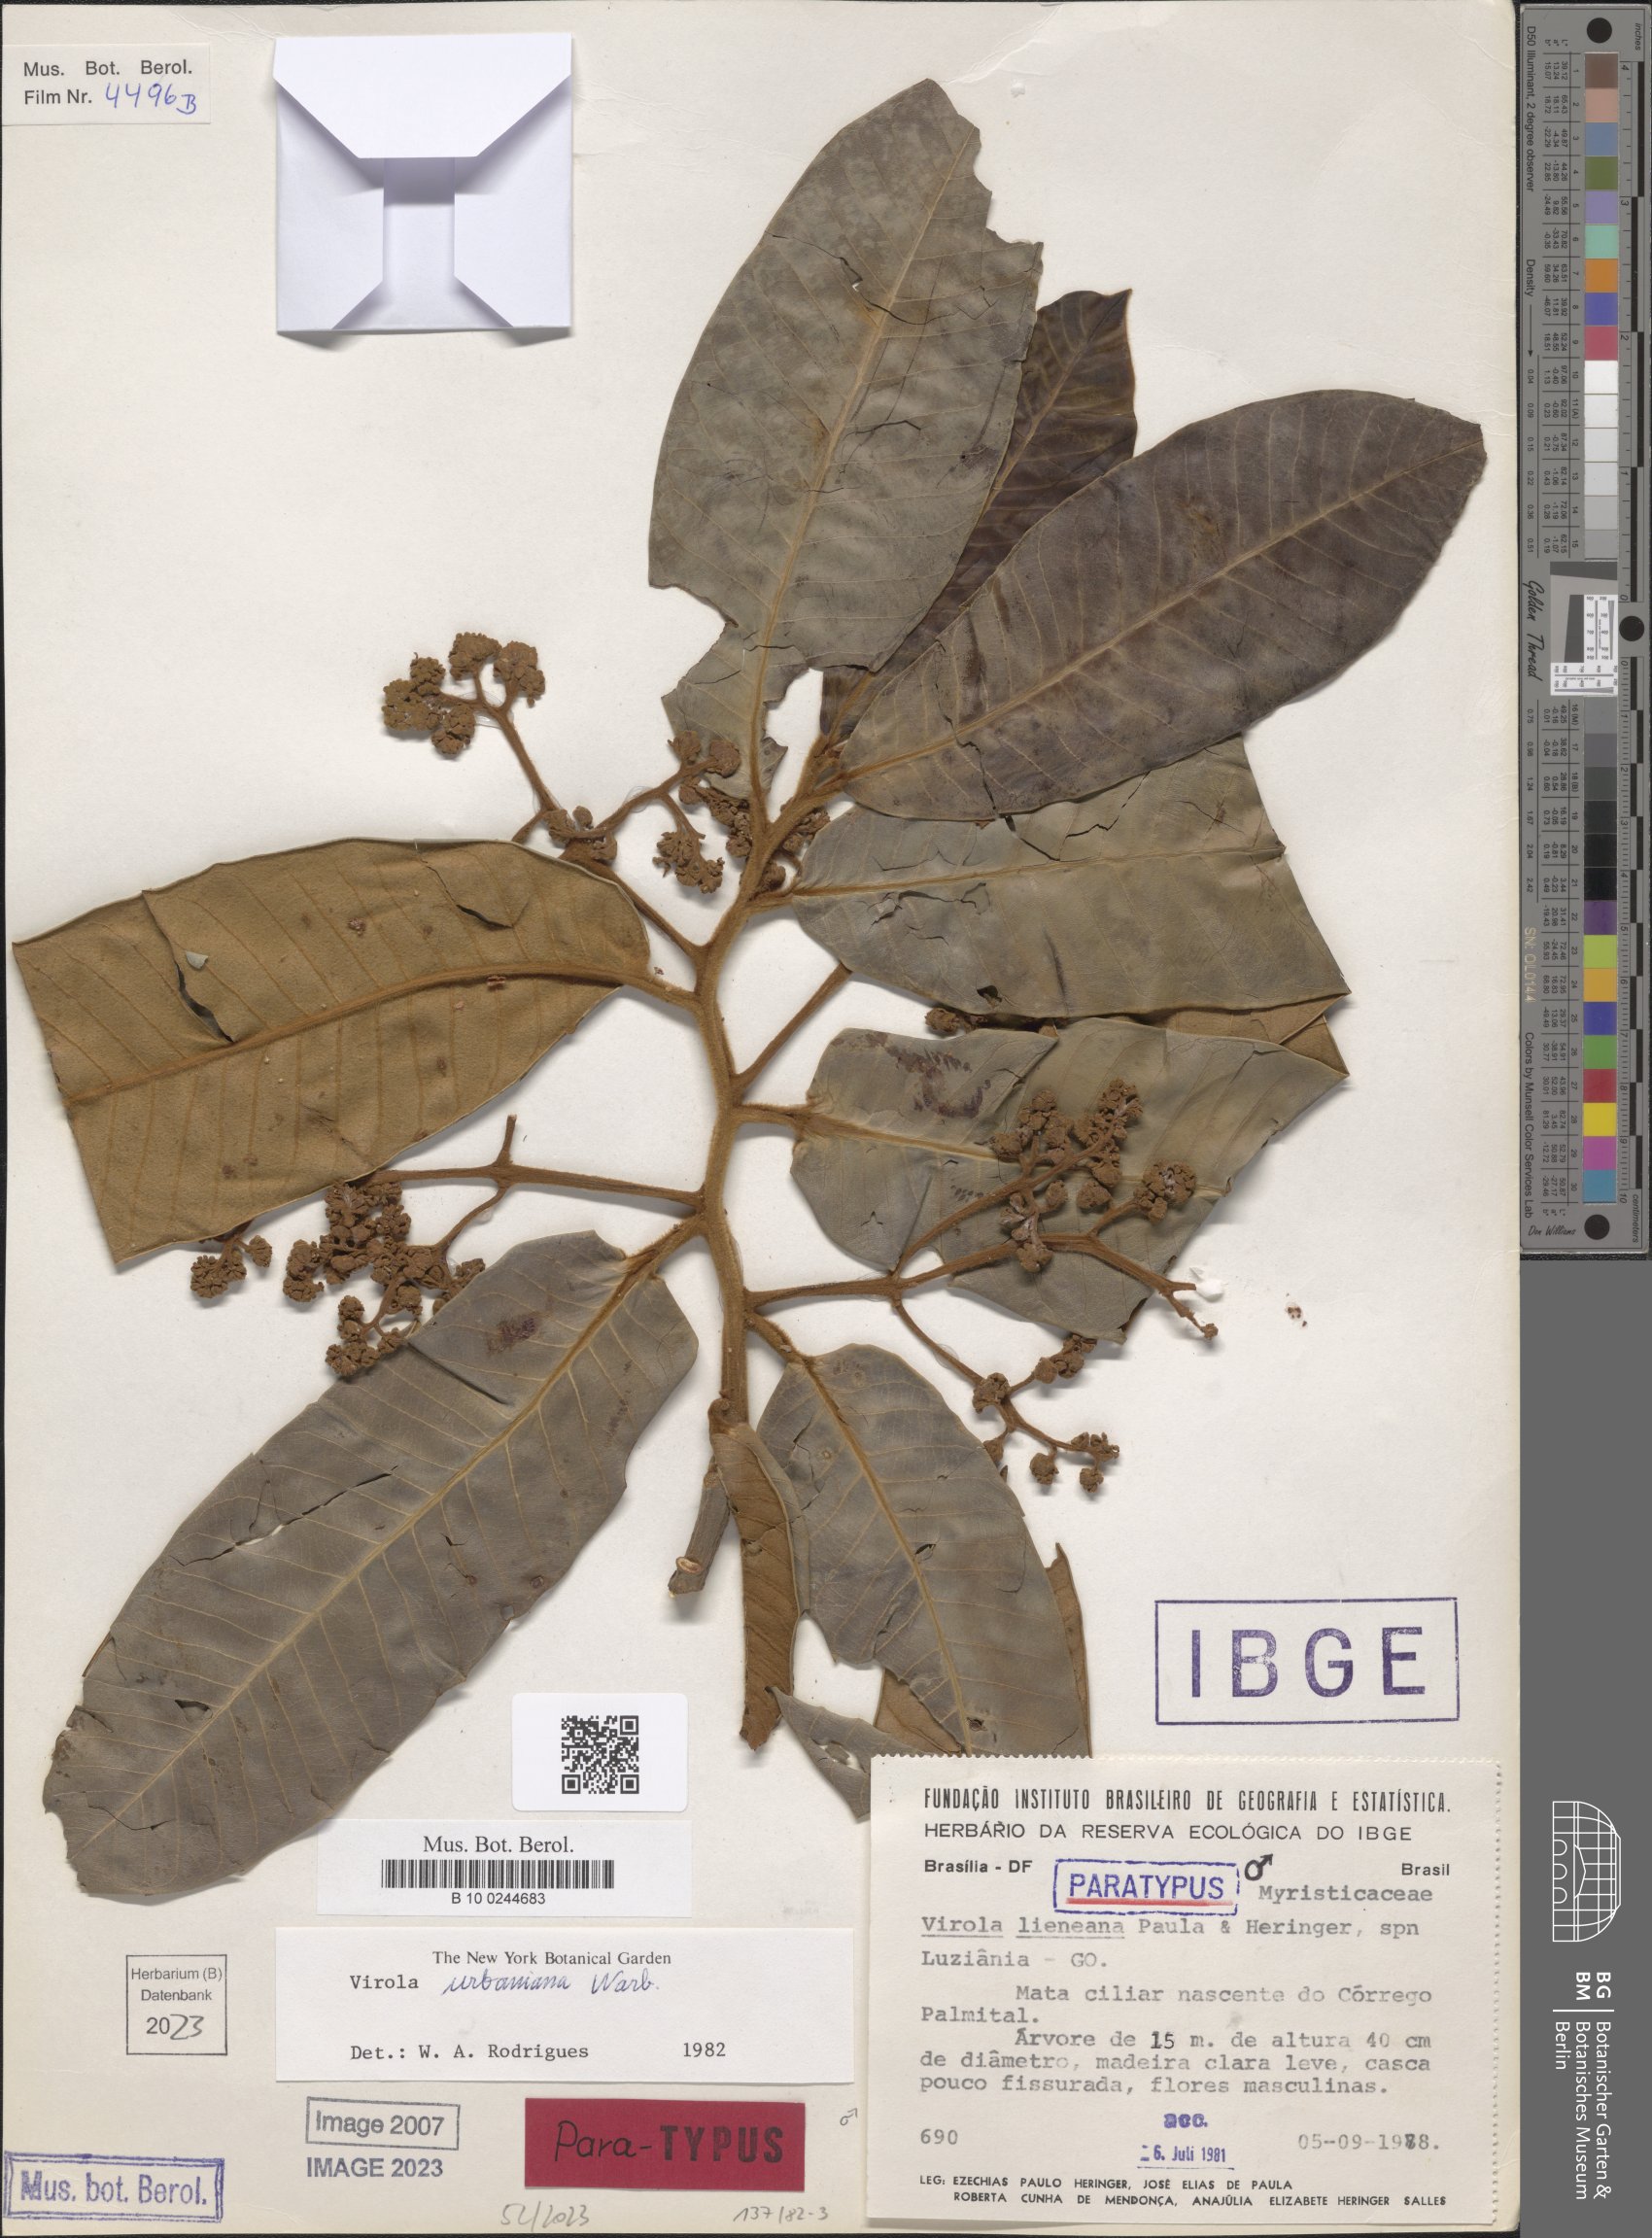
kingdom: Plantae
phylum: Tracheophyta
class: Magnoliopsida
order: Magnoliales
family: Myristicaceae
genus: Virola
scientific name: Virola urbaniana
